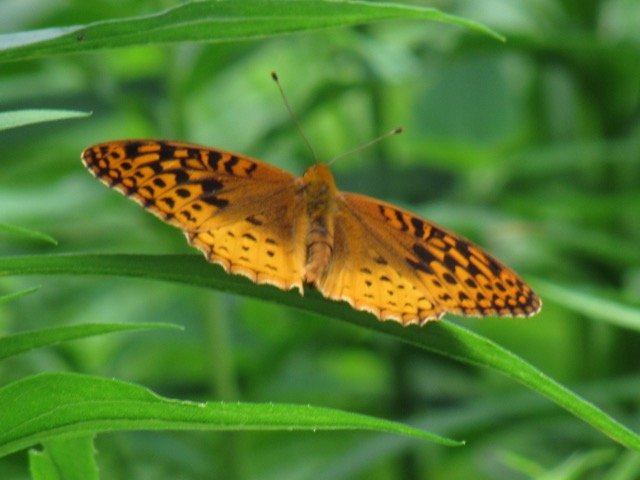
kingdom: Animalia
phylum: Arthropoda
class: Insecta
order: Lepidoptera
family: Nymphalidae
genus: Speyeria
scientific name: Speyeria cybele
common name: Great Spangled Fritillary
